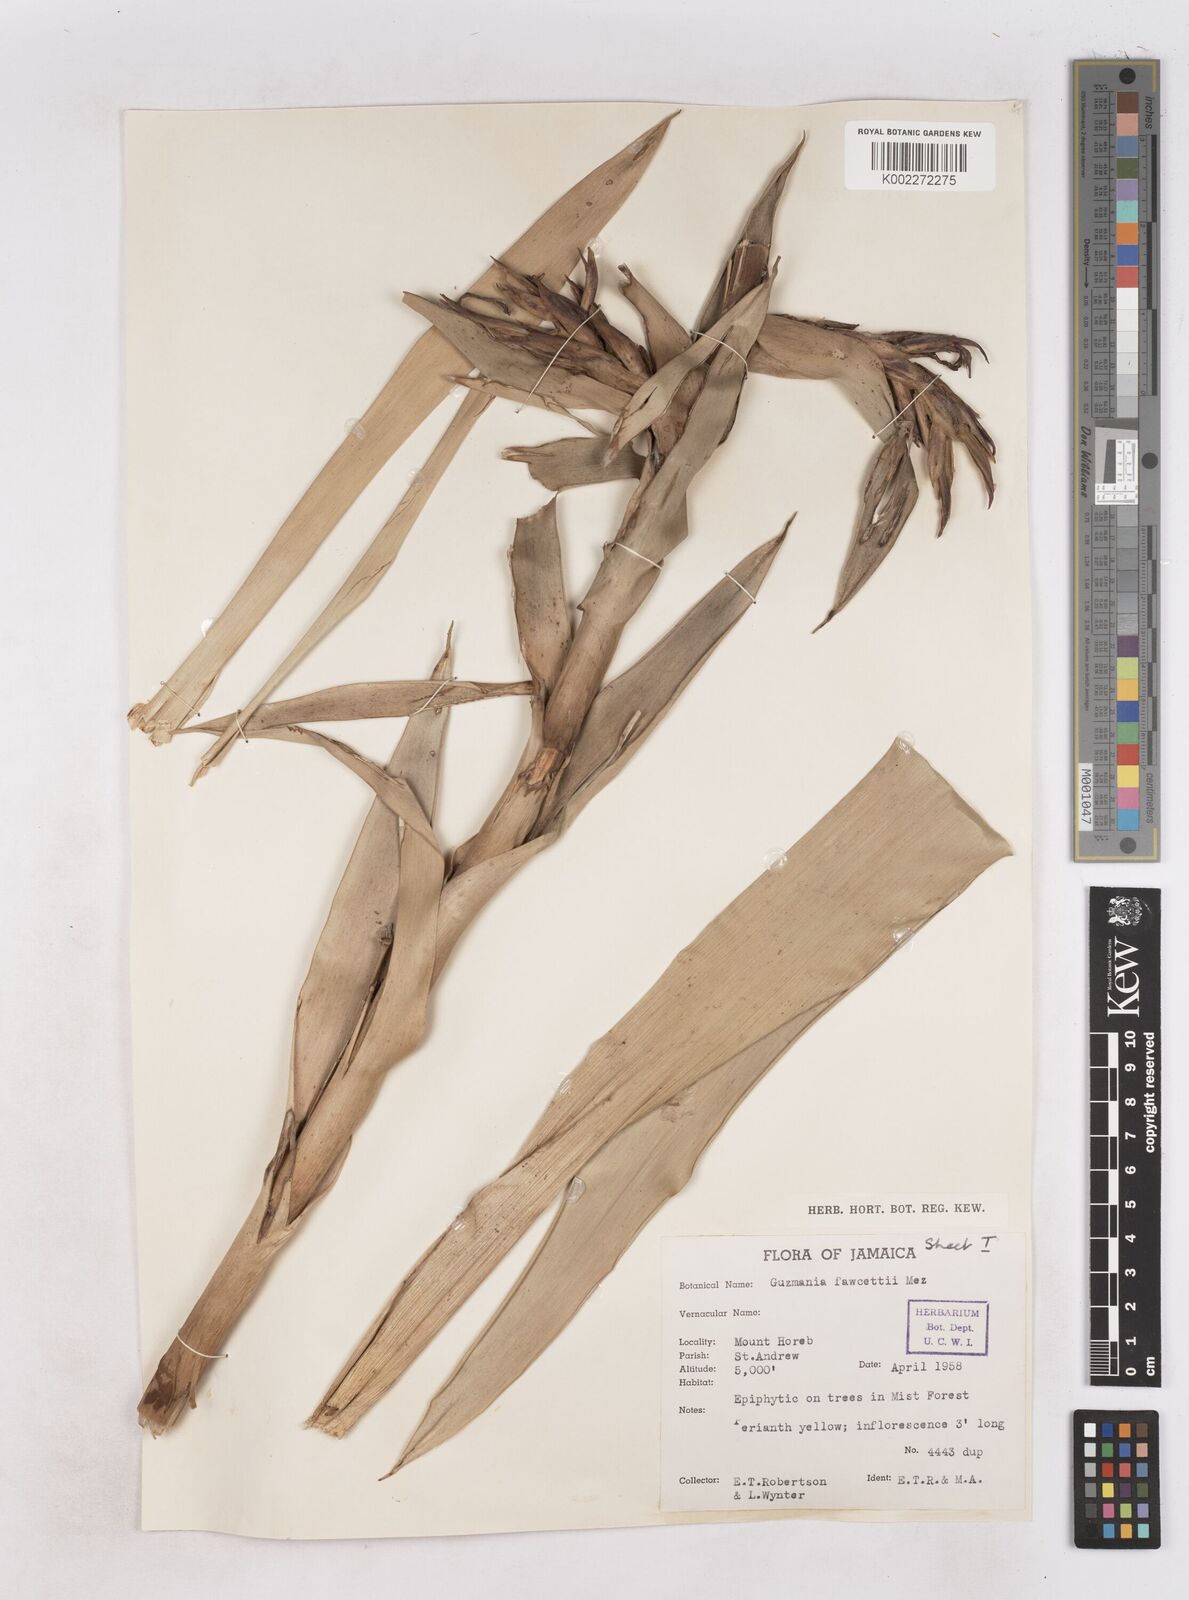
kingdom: Plantae
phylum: Tracheophyta
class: Liliopsida
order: Poales
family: Bromeliaceae
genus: Guzmania
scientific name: Guzmania fawcettii
